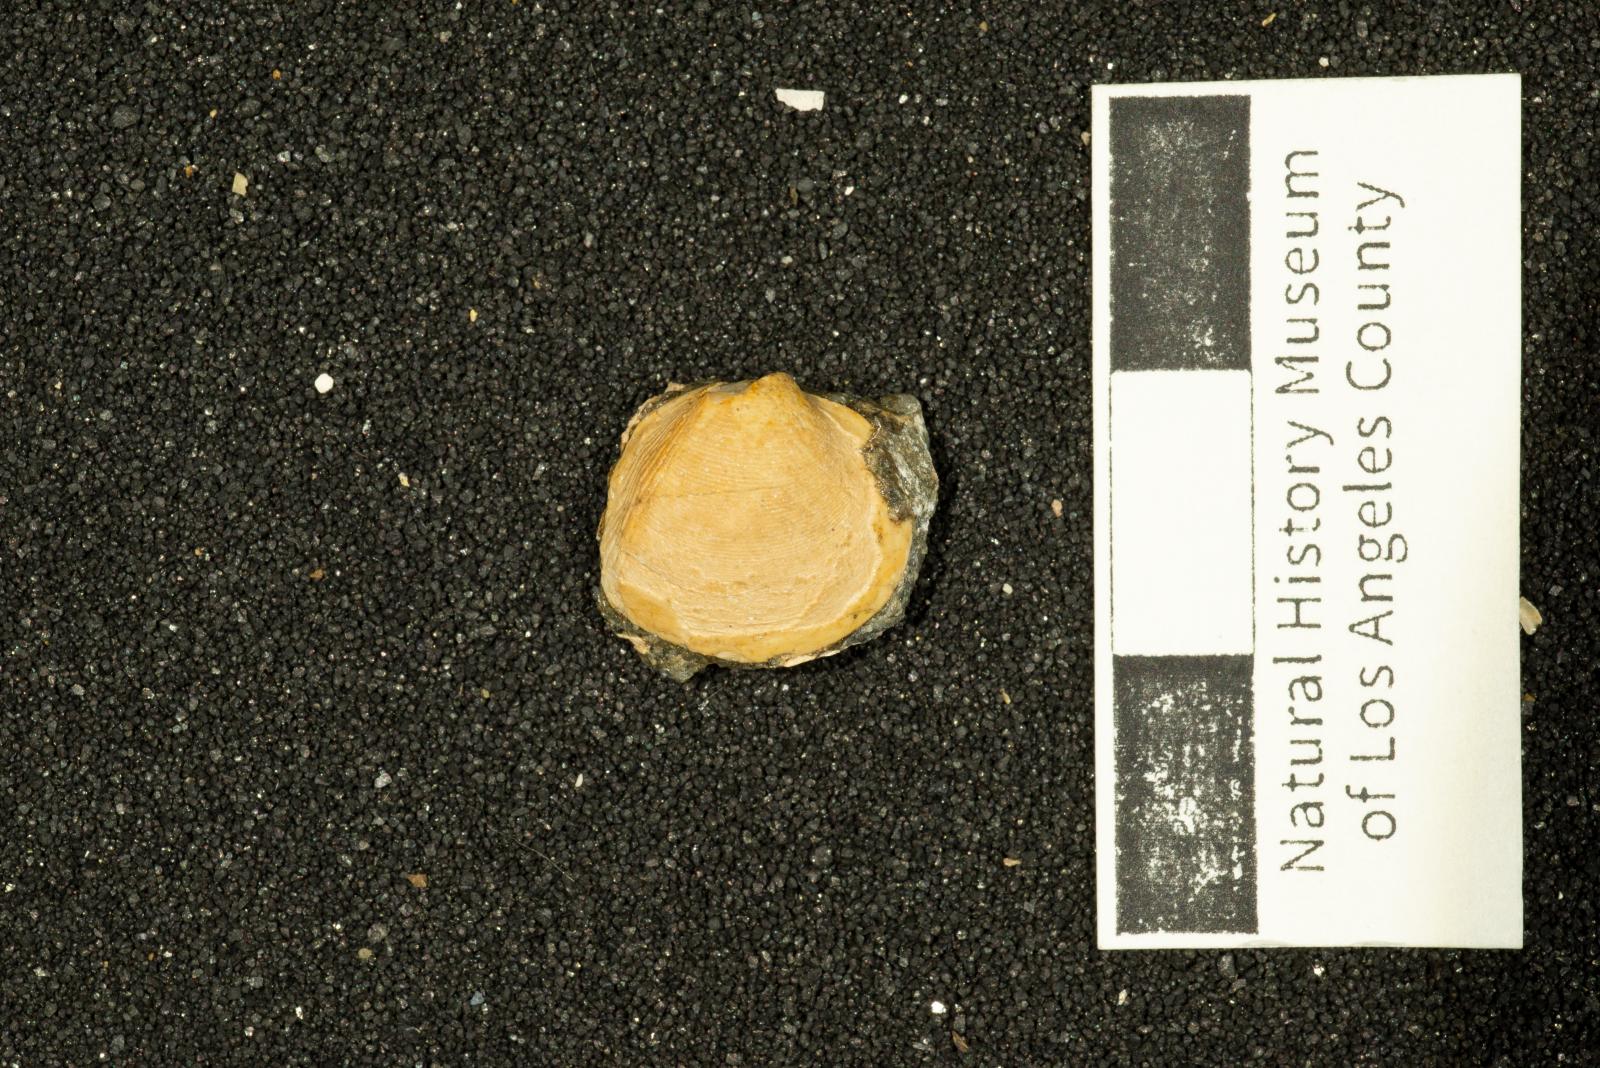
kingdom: Animalia
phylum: Mollusca
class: Bivalvia
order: Cardiida
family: Cardiidae
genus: Protocardia
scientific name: Protocardia
